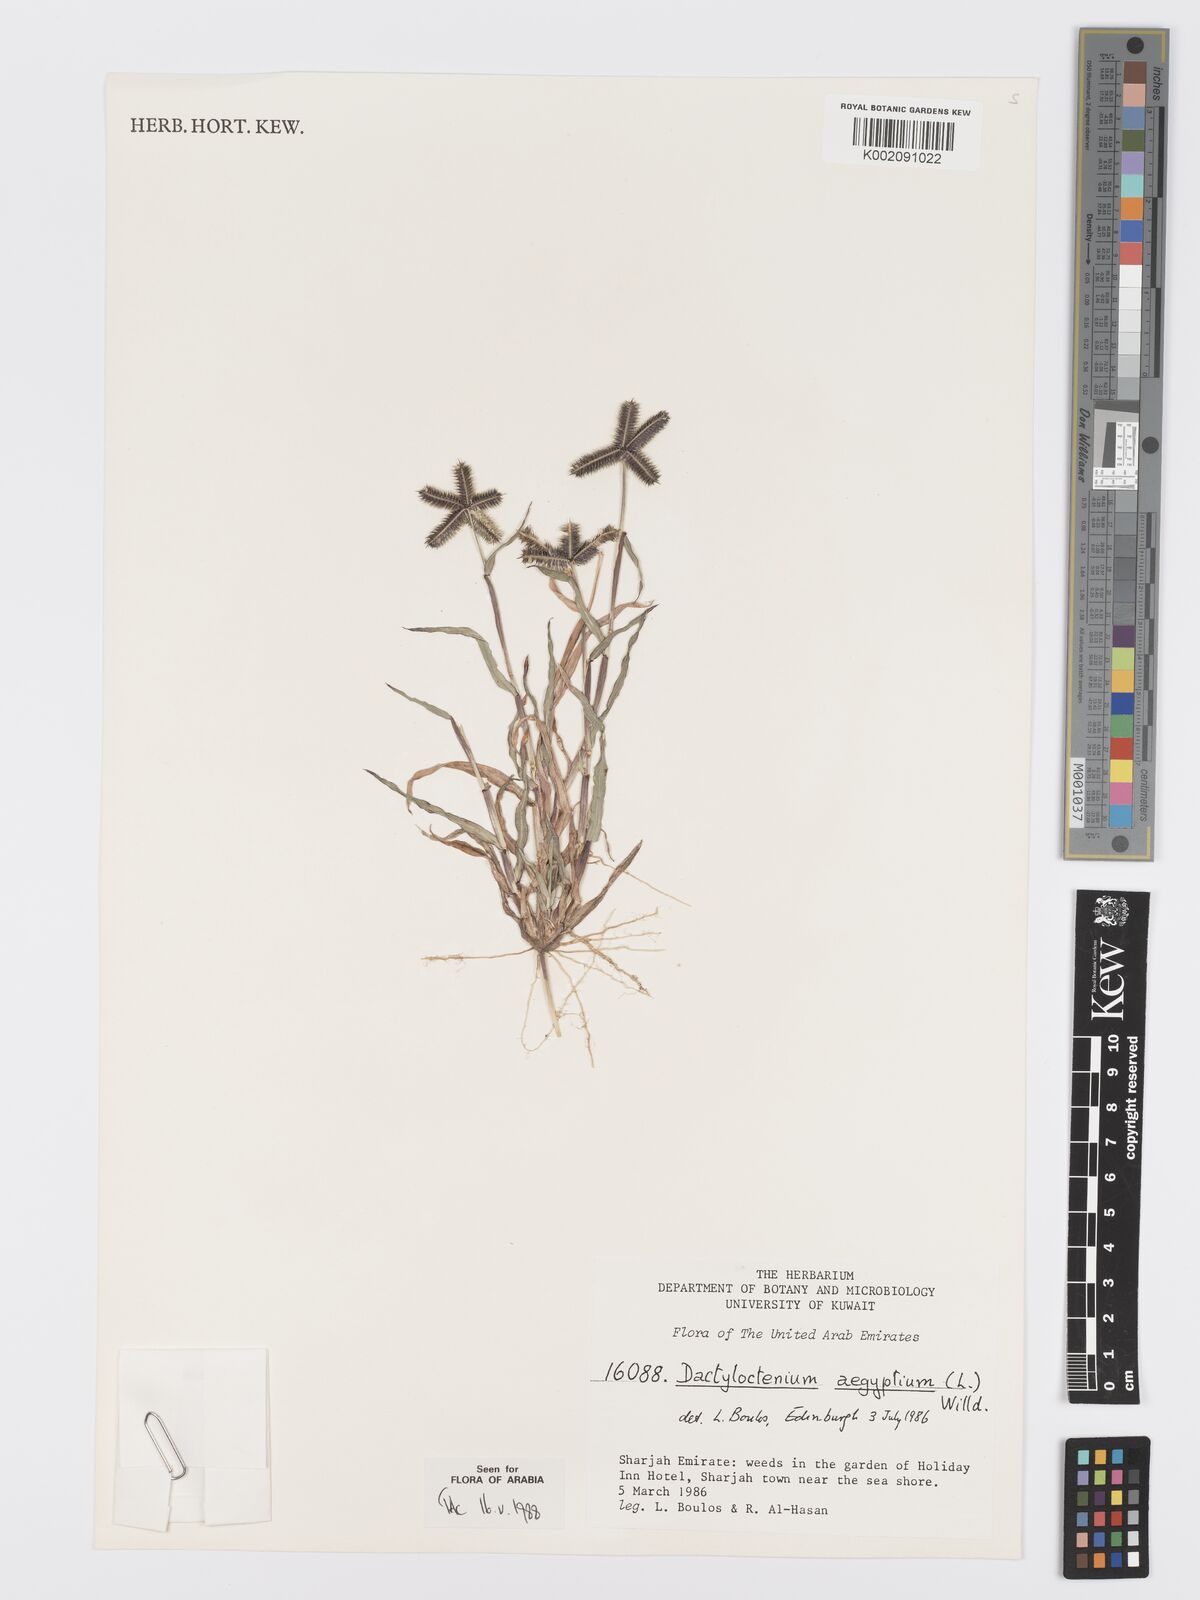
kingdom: Plantae
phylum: Tracheophyta
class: Liliopsida
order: Poales
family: Poaceae
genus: Dactyloctenium
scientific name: Dactyloctenium aegyptium
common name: Egyptian grass
